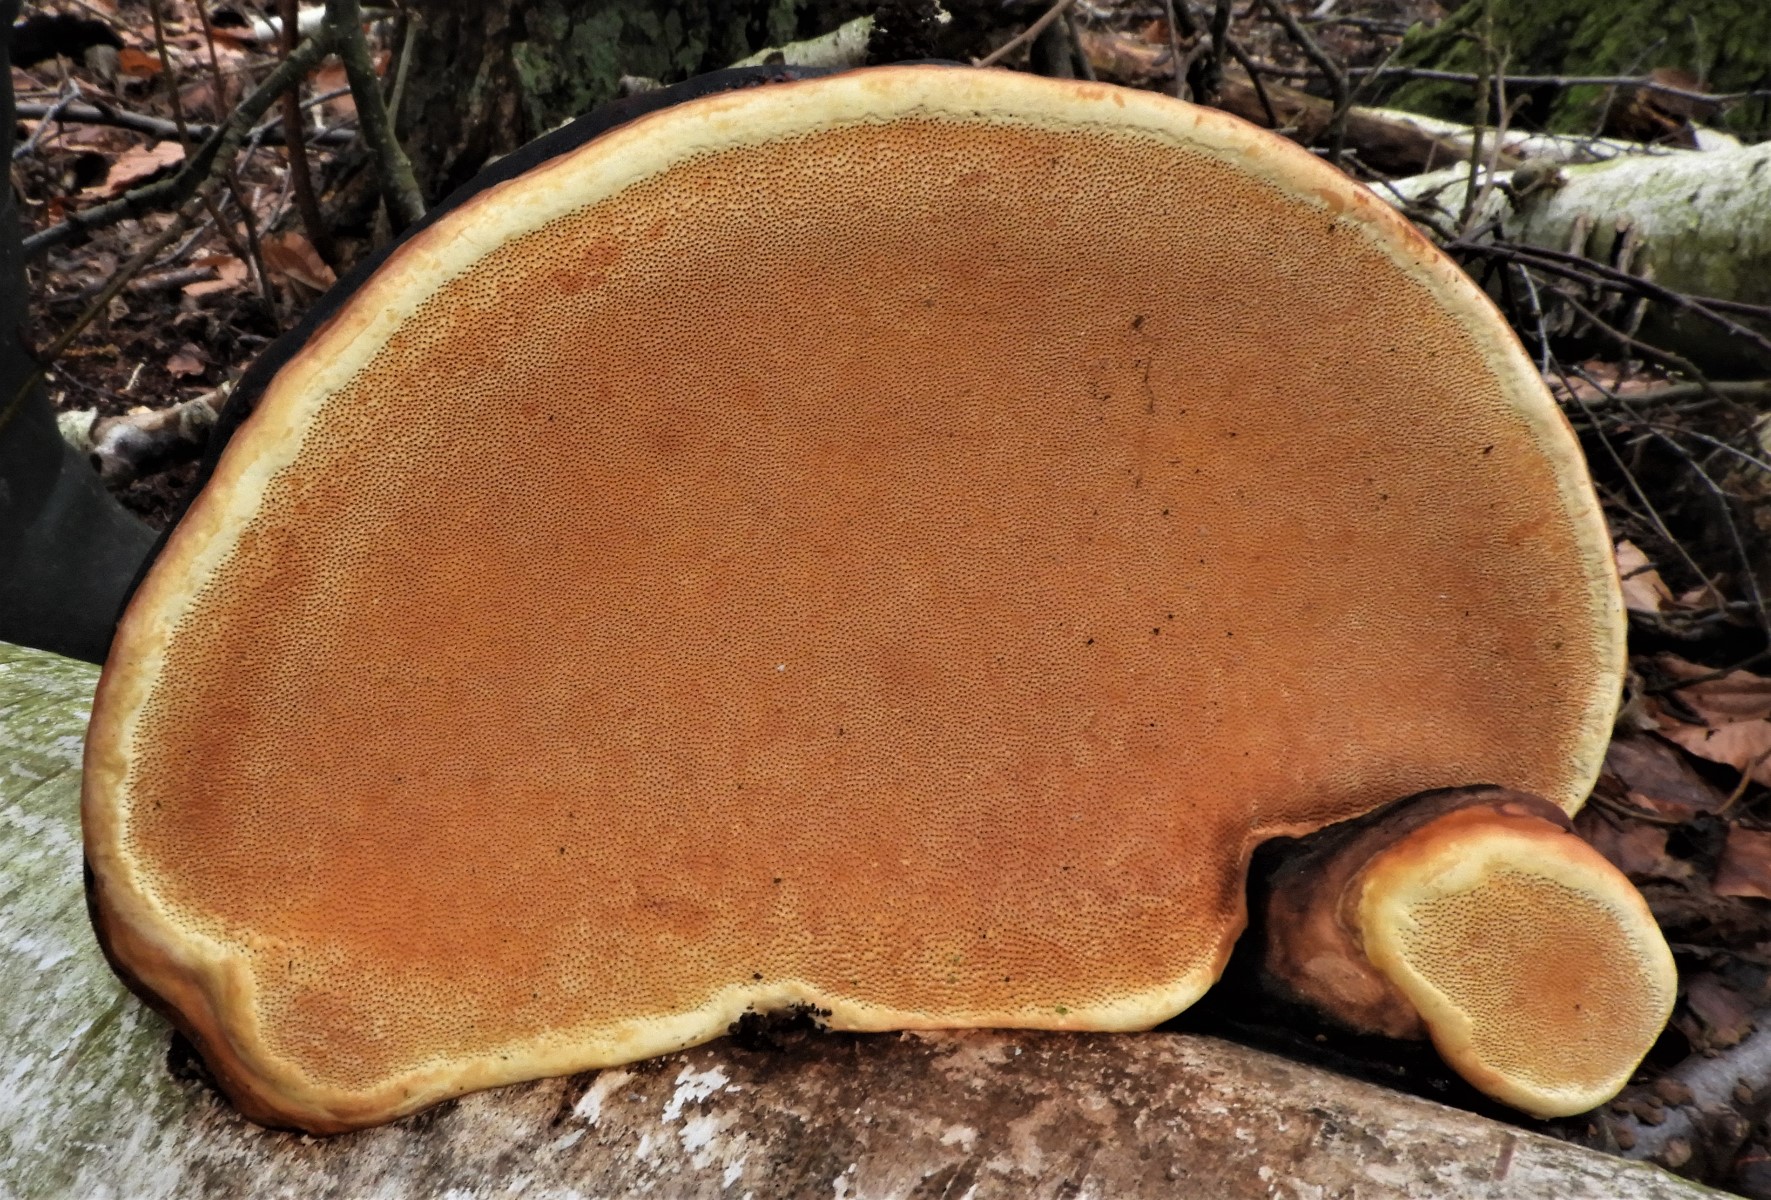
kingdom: Fungi
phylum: Basidiomycota
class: Agaricomycetes
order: Polyporales
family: Fomitopsidaceae
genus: Fomitopsis
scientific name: Fomitopsis pinicola
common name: randbæltet hovporesvamp
